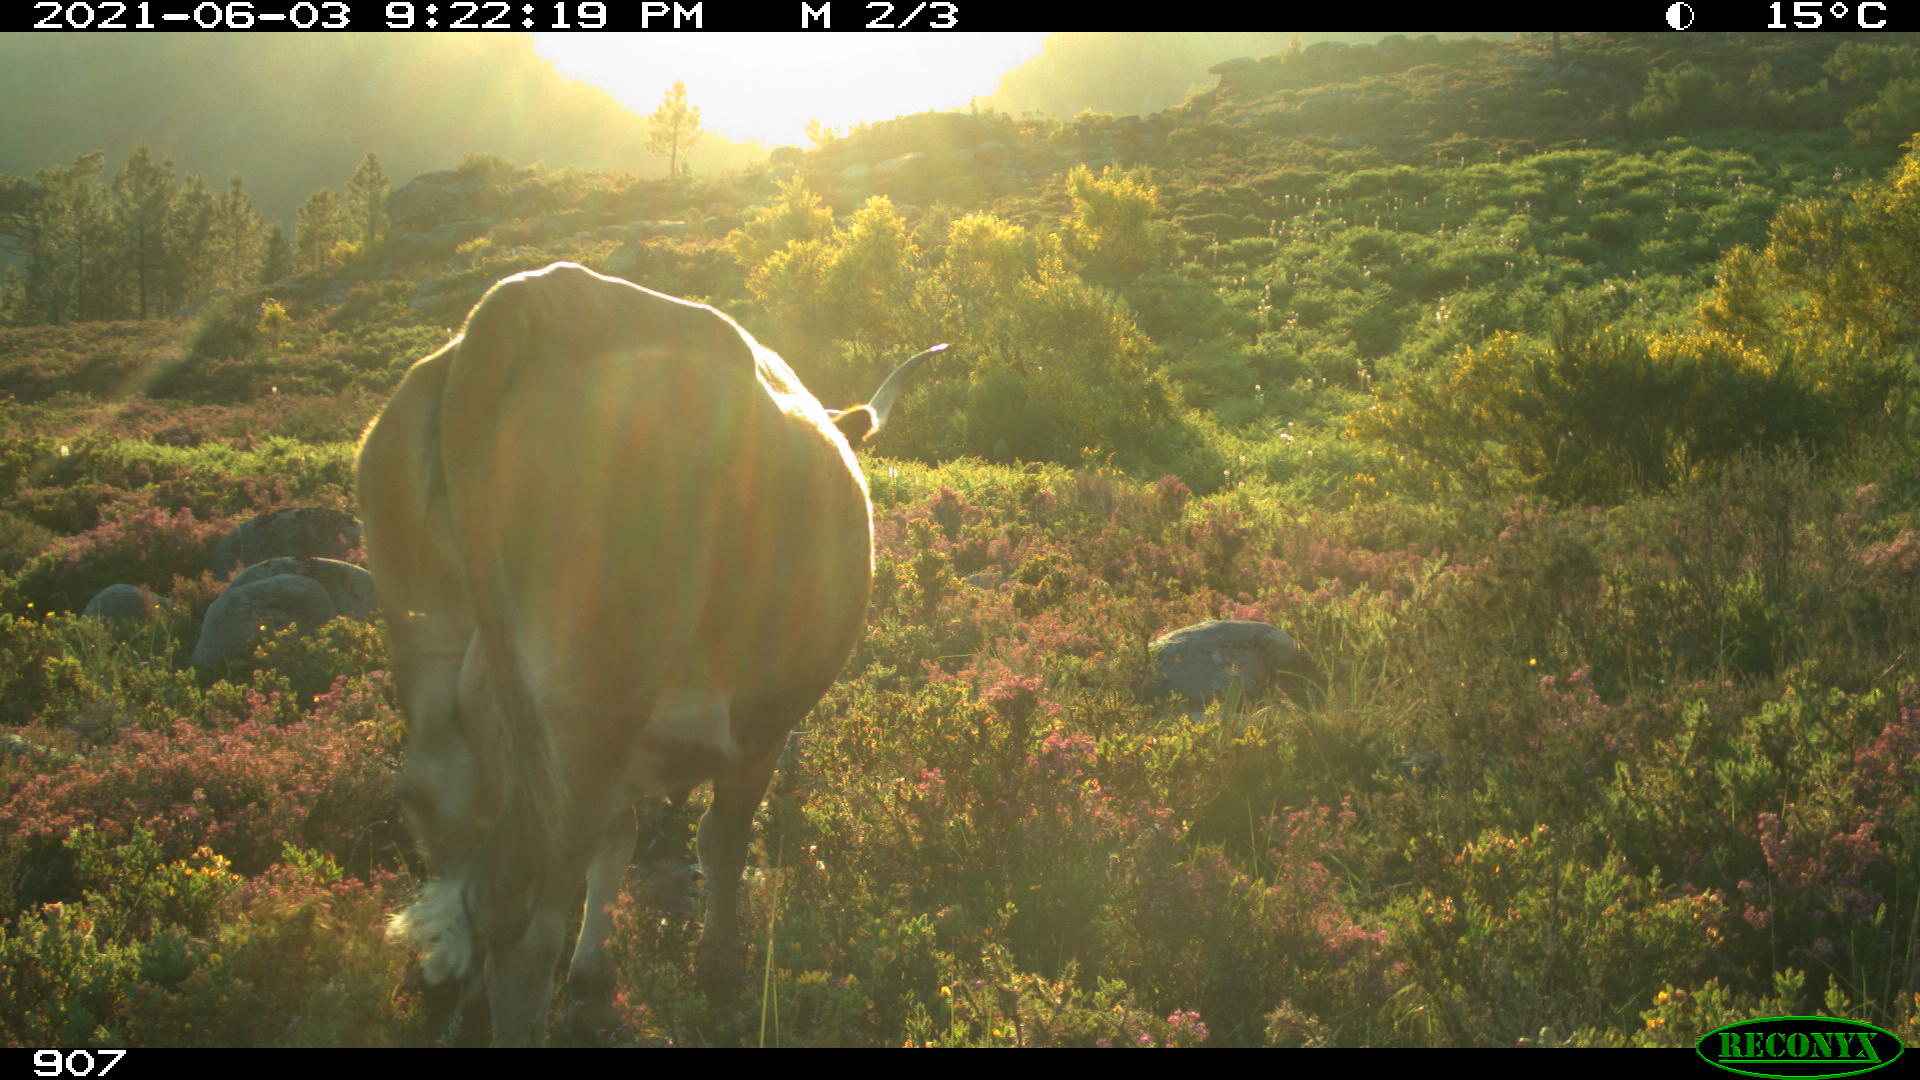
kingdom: Animalia
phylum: Chordata
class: Mammalia
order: Artiodactyla
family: Bovidae
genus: Bos
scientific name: Bos taurus
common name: Domesticated cattle
